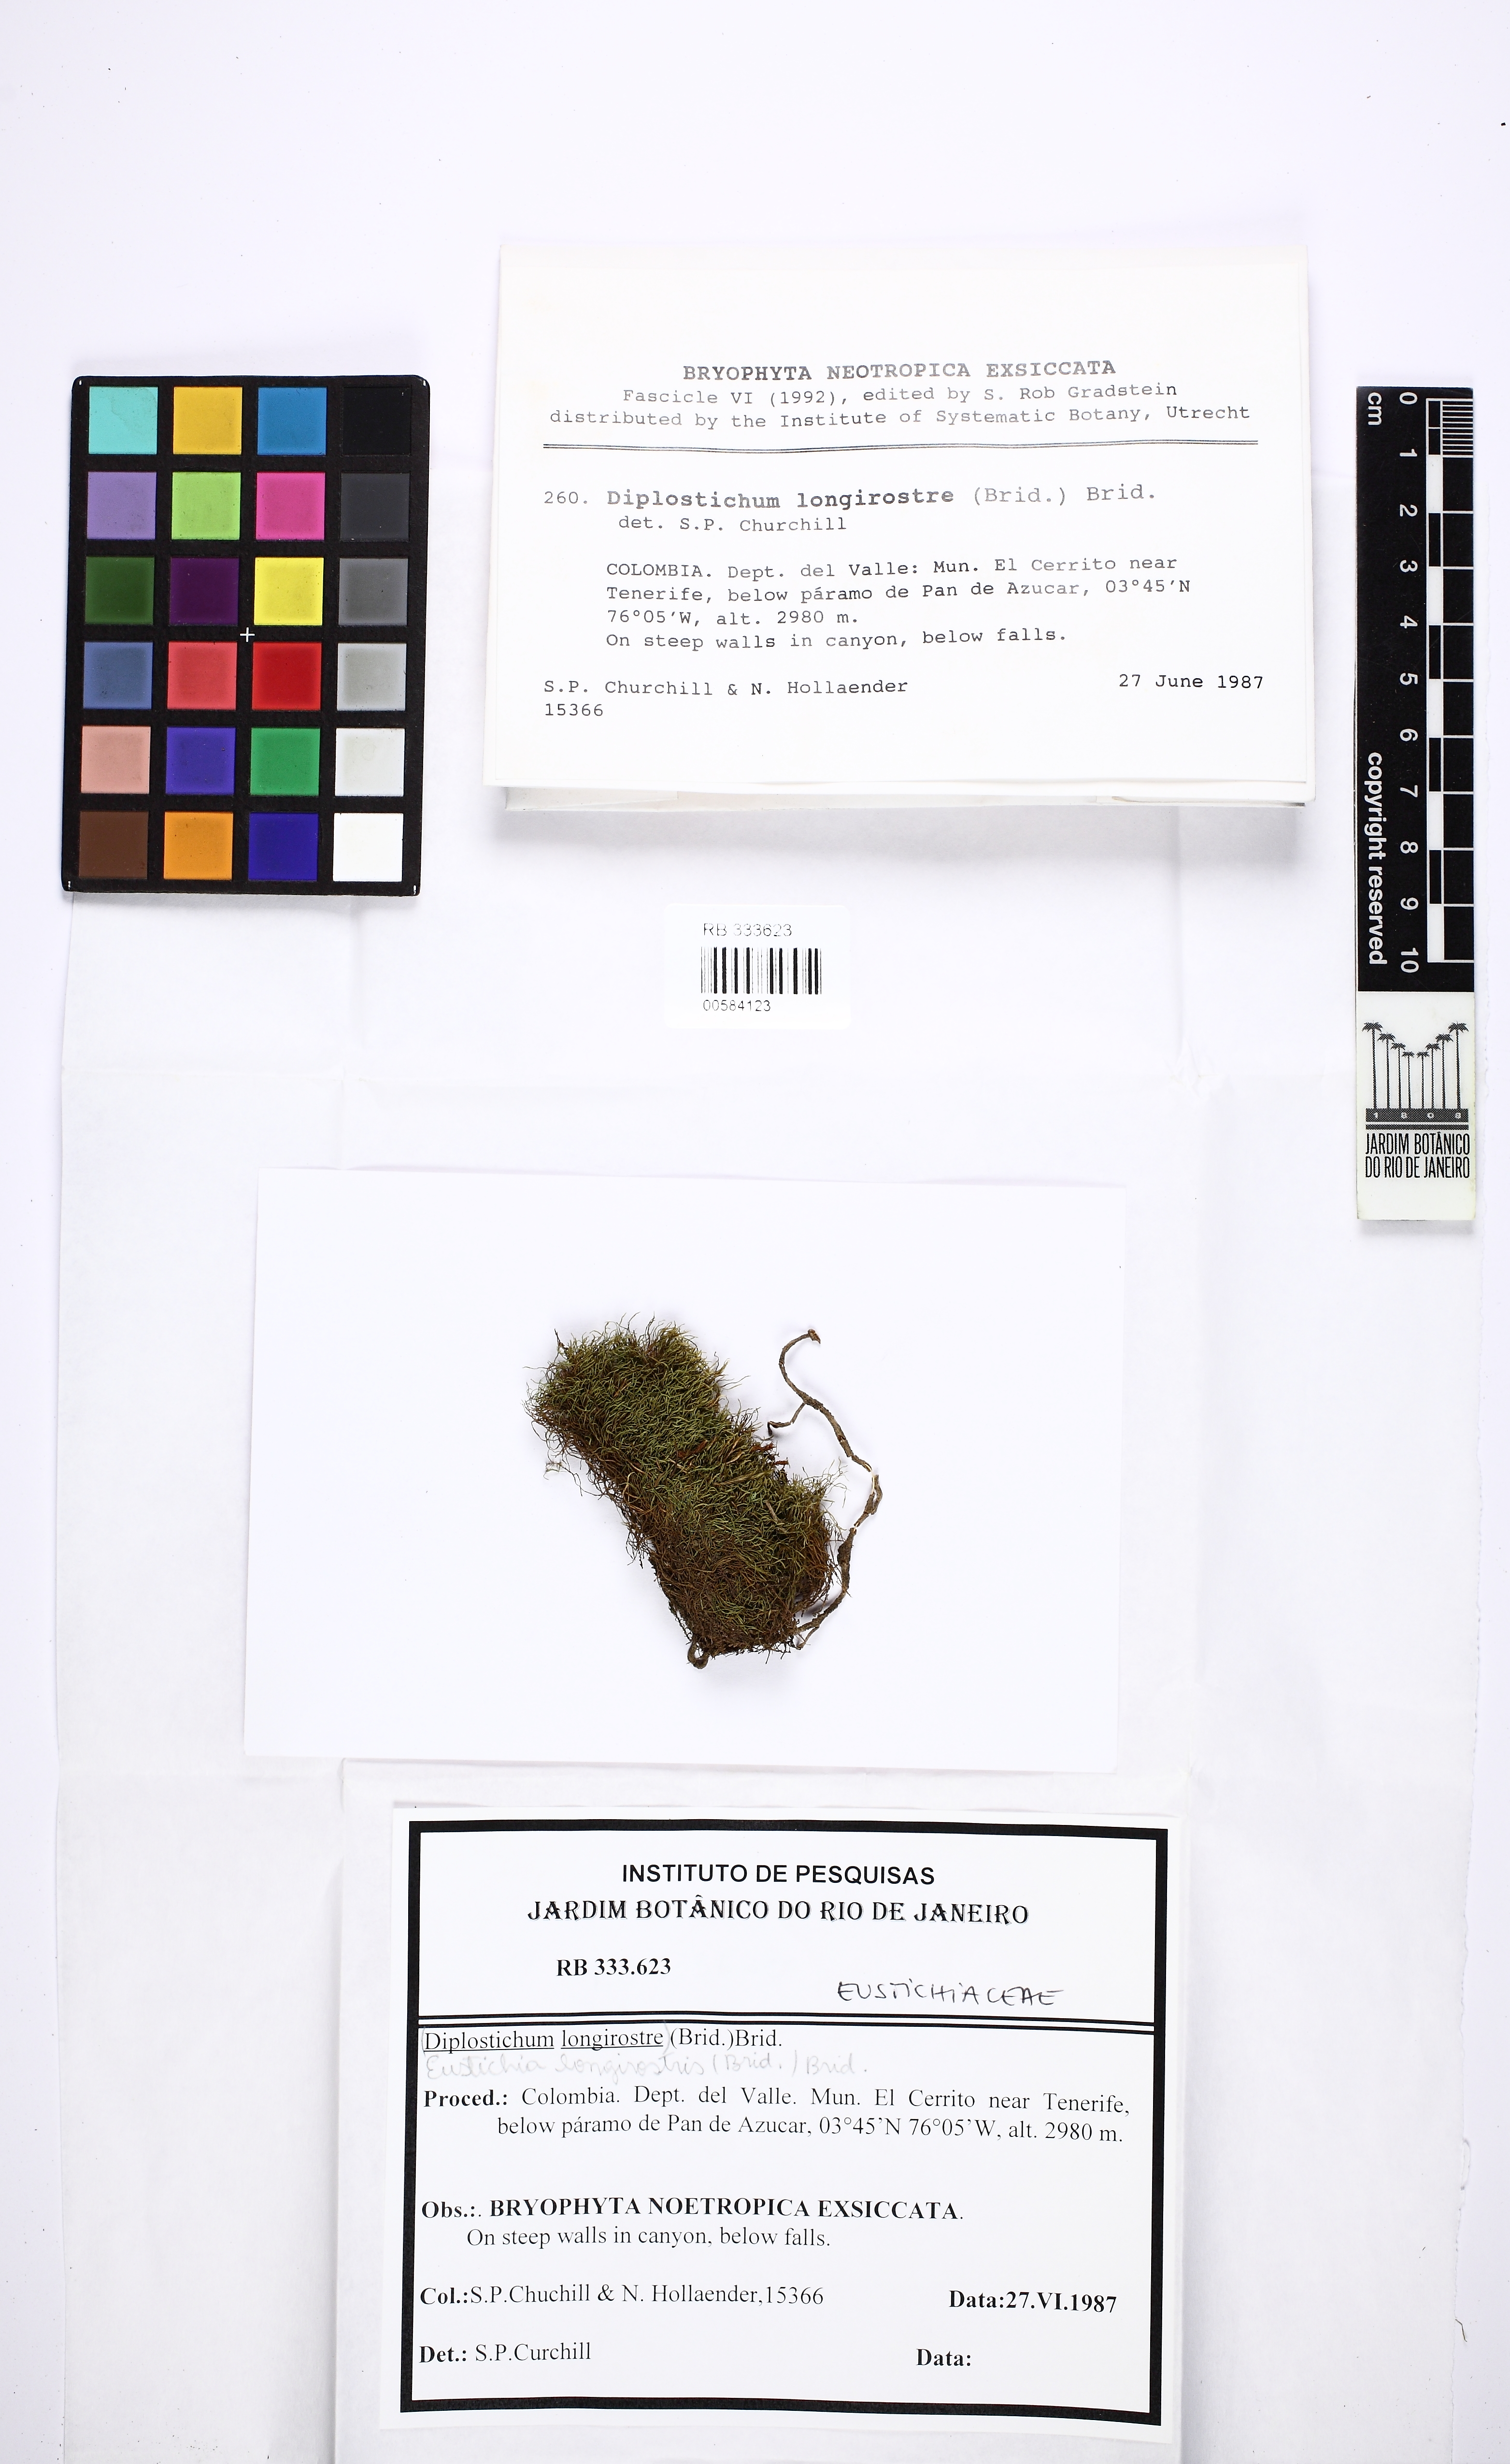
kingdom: Plantae
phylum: Bryophyta
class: Bryopsida
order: Dicranales
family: Eustichiaceae
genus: Eustichia
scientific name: Eustichia longirostris
